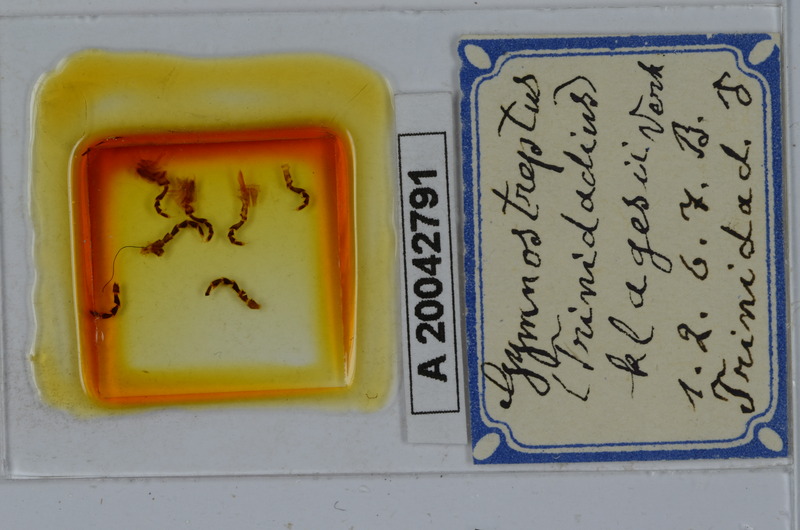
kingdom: Animalia
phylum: Arthropoda
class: Diplopoda
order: Spirostreptida
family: Spirostreptidae
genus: Orthoporus
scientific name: Orthoporus cavicollis
